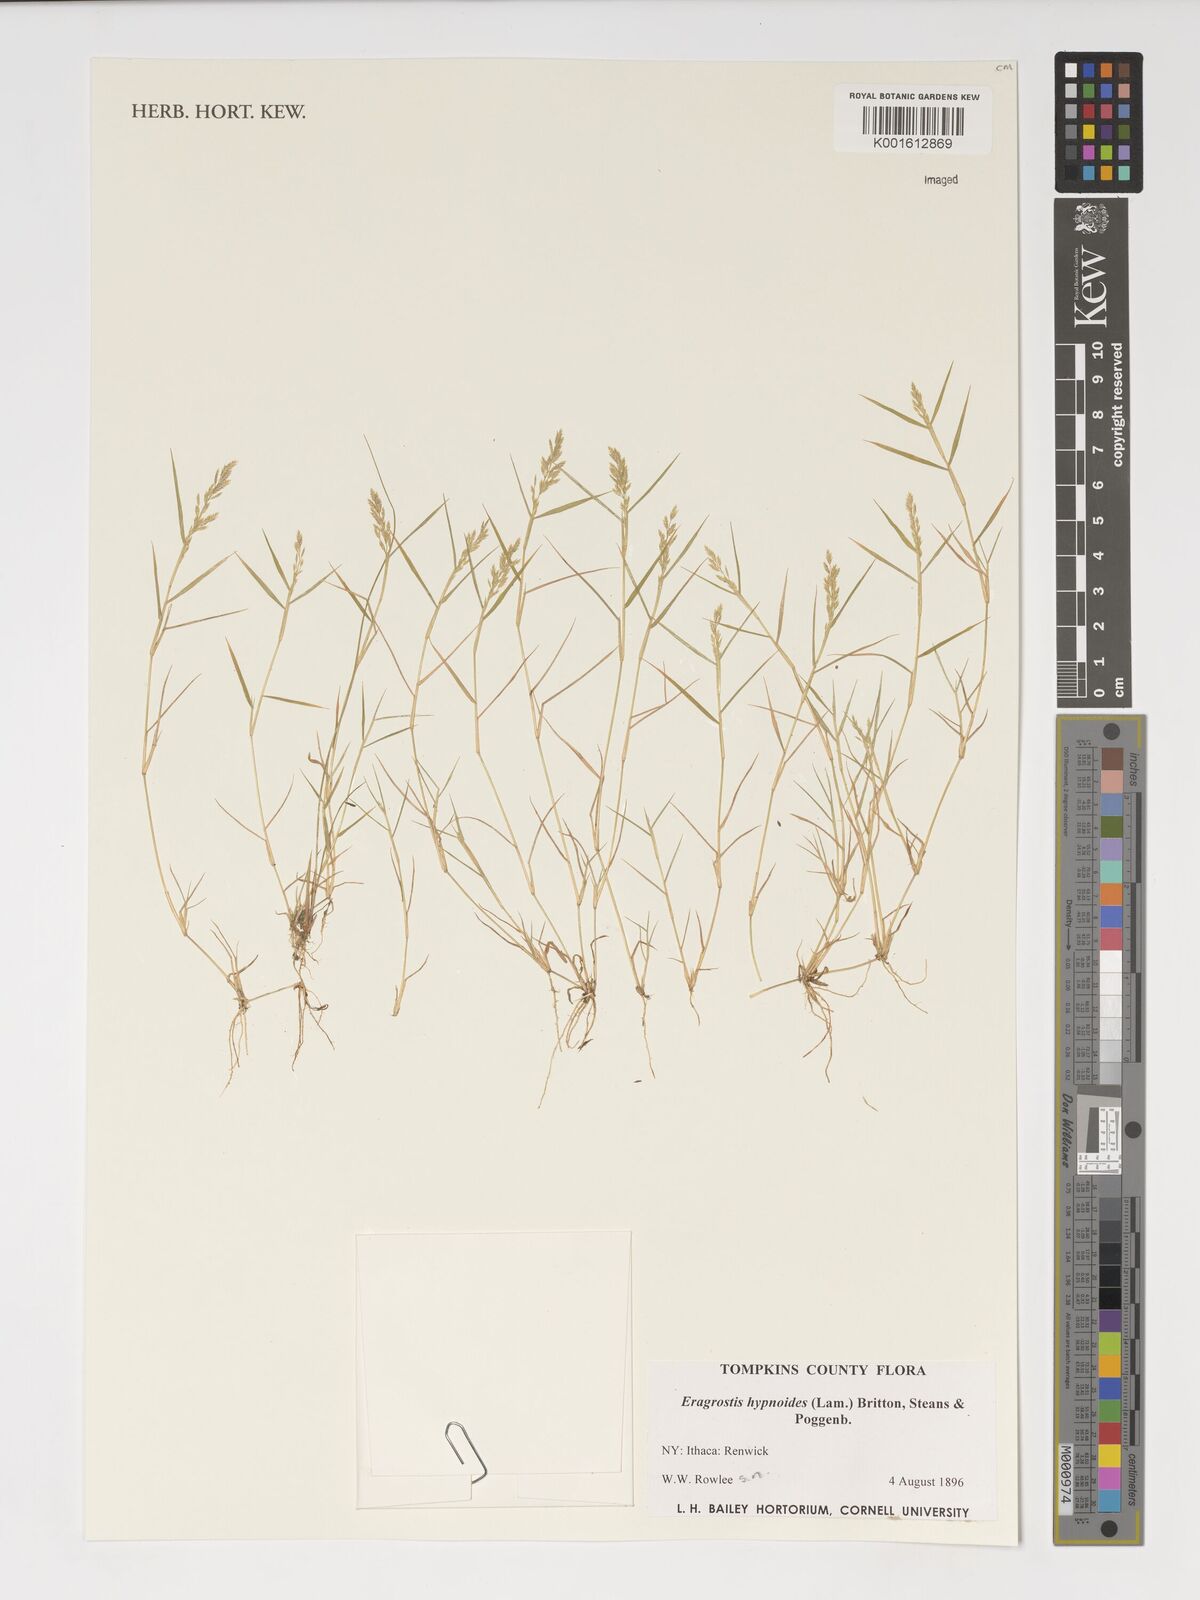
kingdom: Plantae
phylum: Tracheophyta
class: Liliopsida
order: Poales
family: Poaceae
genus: Eragrostis
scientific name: Eragrostis hypnoides
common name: Creeping love grass
